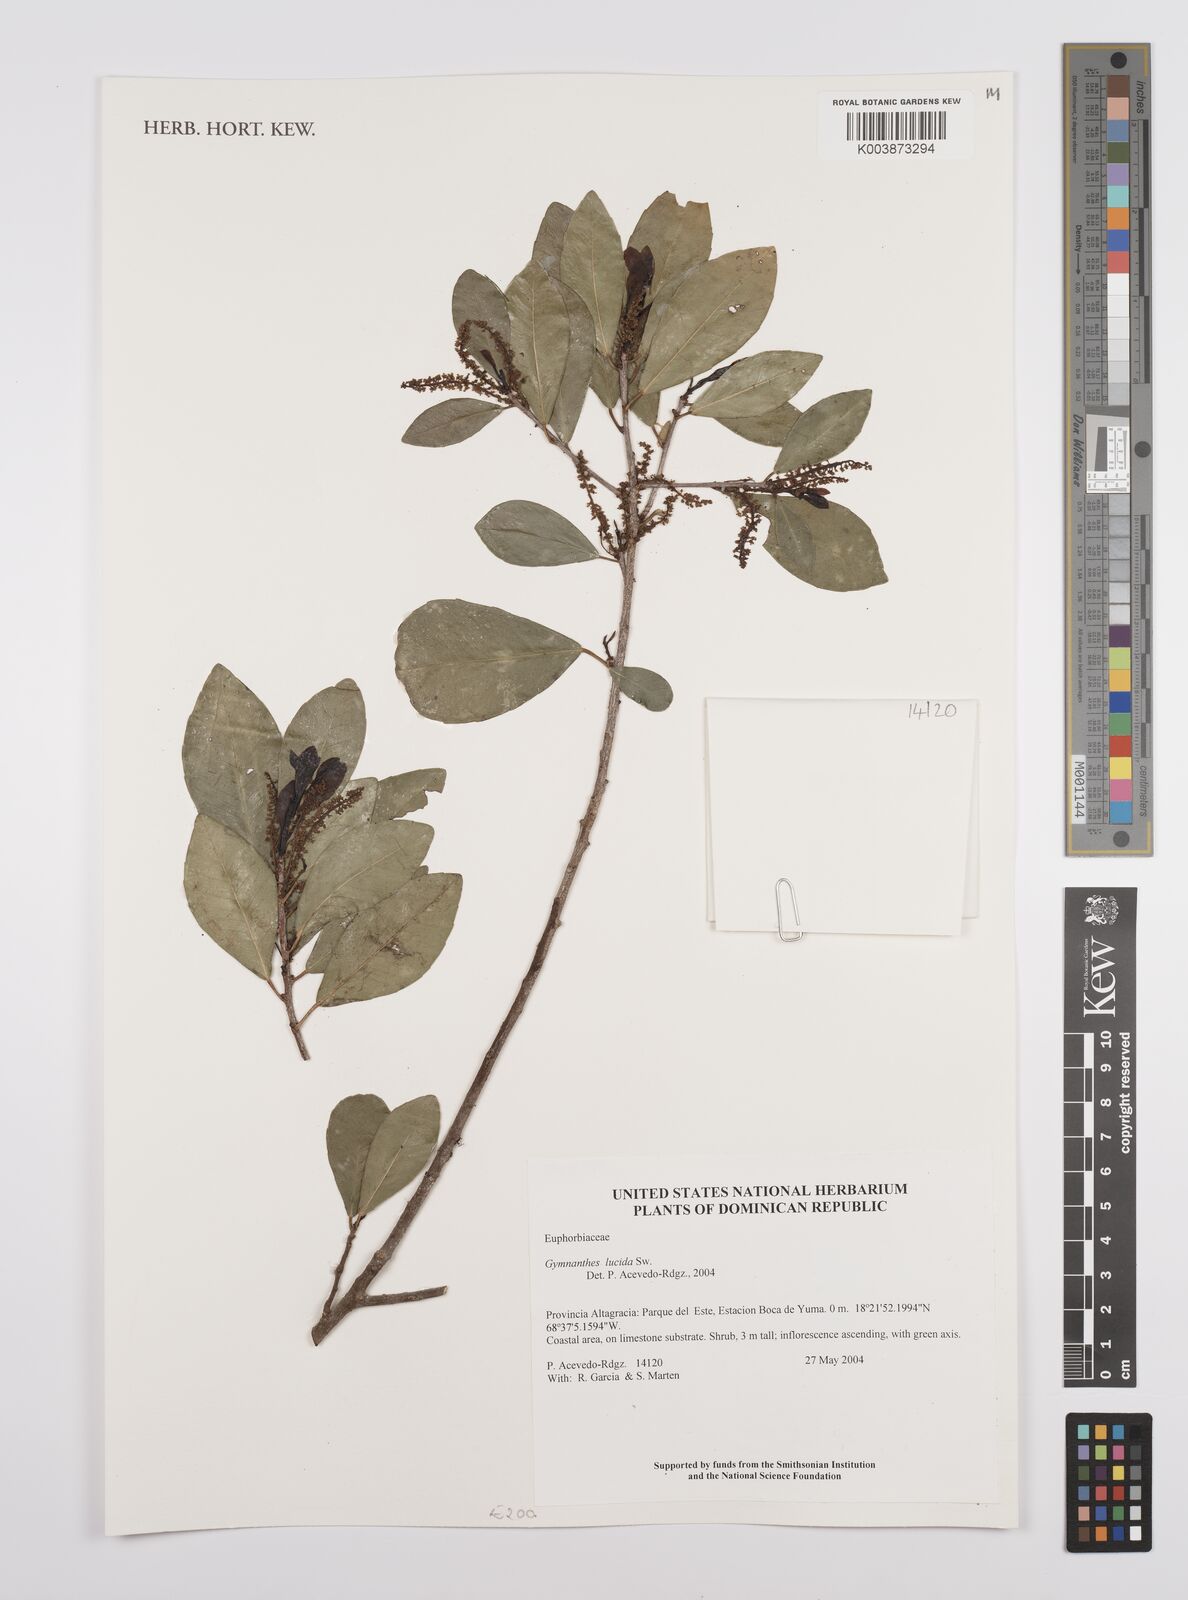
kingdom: Plantae
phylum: Tracheophyta
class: Magnoliopsida
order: Malpighiales
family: Euphorbiaceae
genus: Gymnanthes
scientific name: Gymnanthes lucida
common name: Oysterwood
